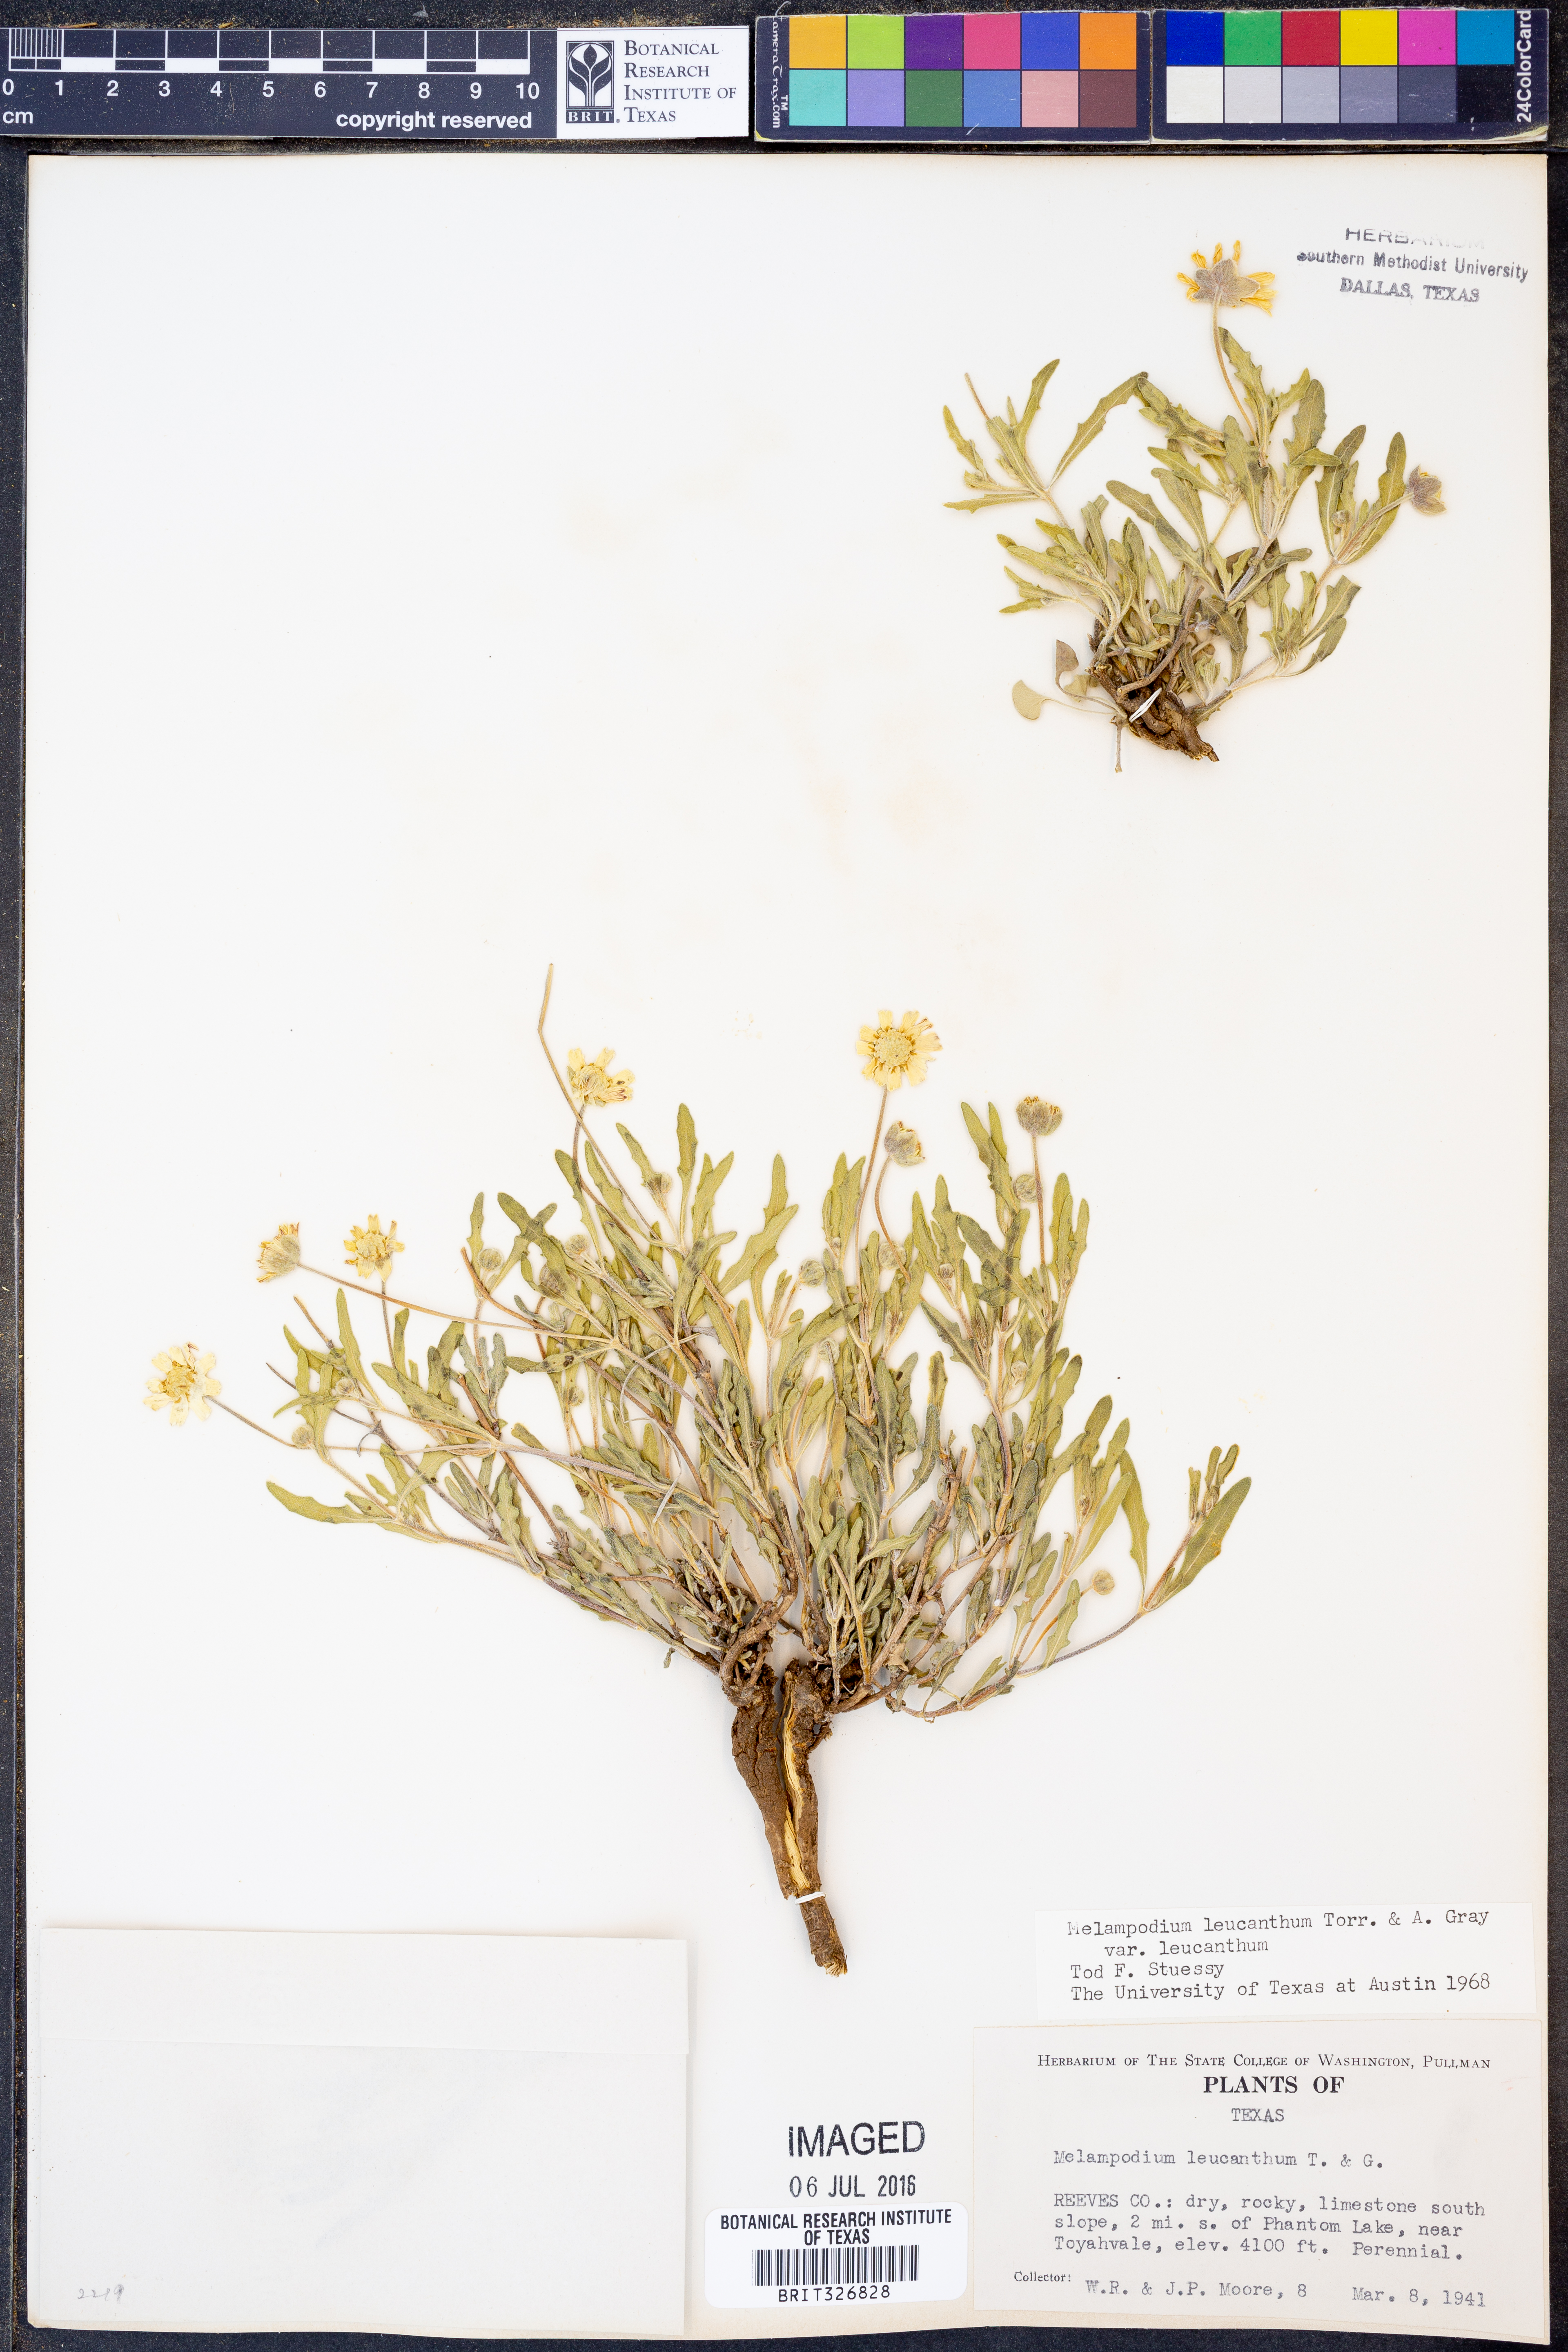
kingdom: Plantae
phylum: Tracheophyta
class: Magnoliopsida
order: Asterales
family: Asteraceae
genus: Melampodium
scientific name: Melampodium leucanthum
